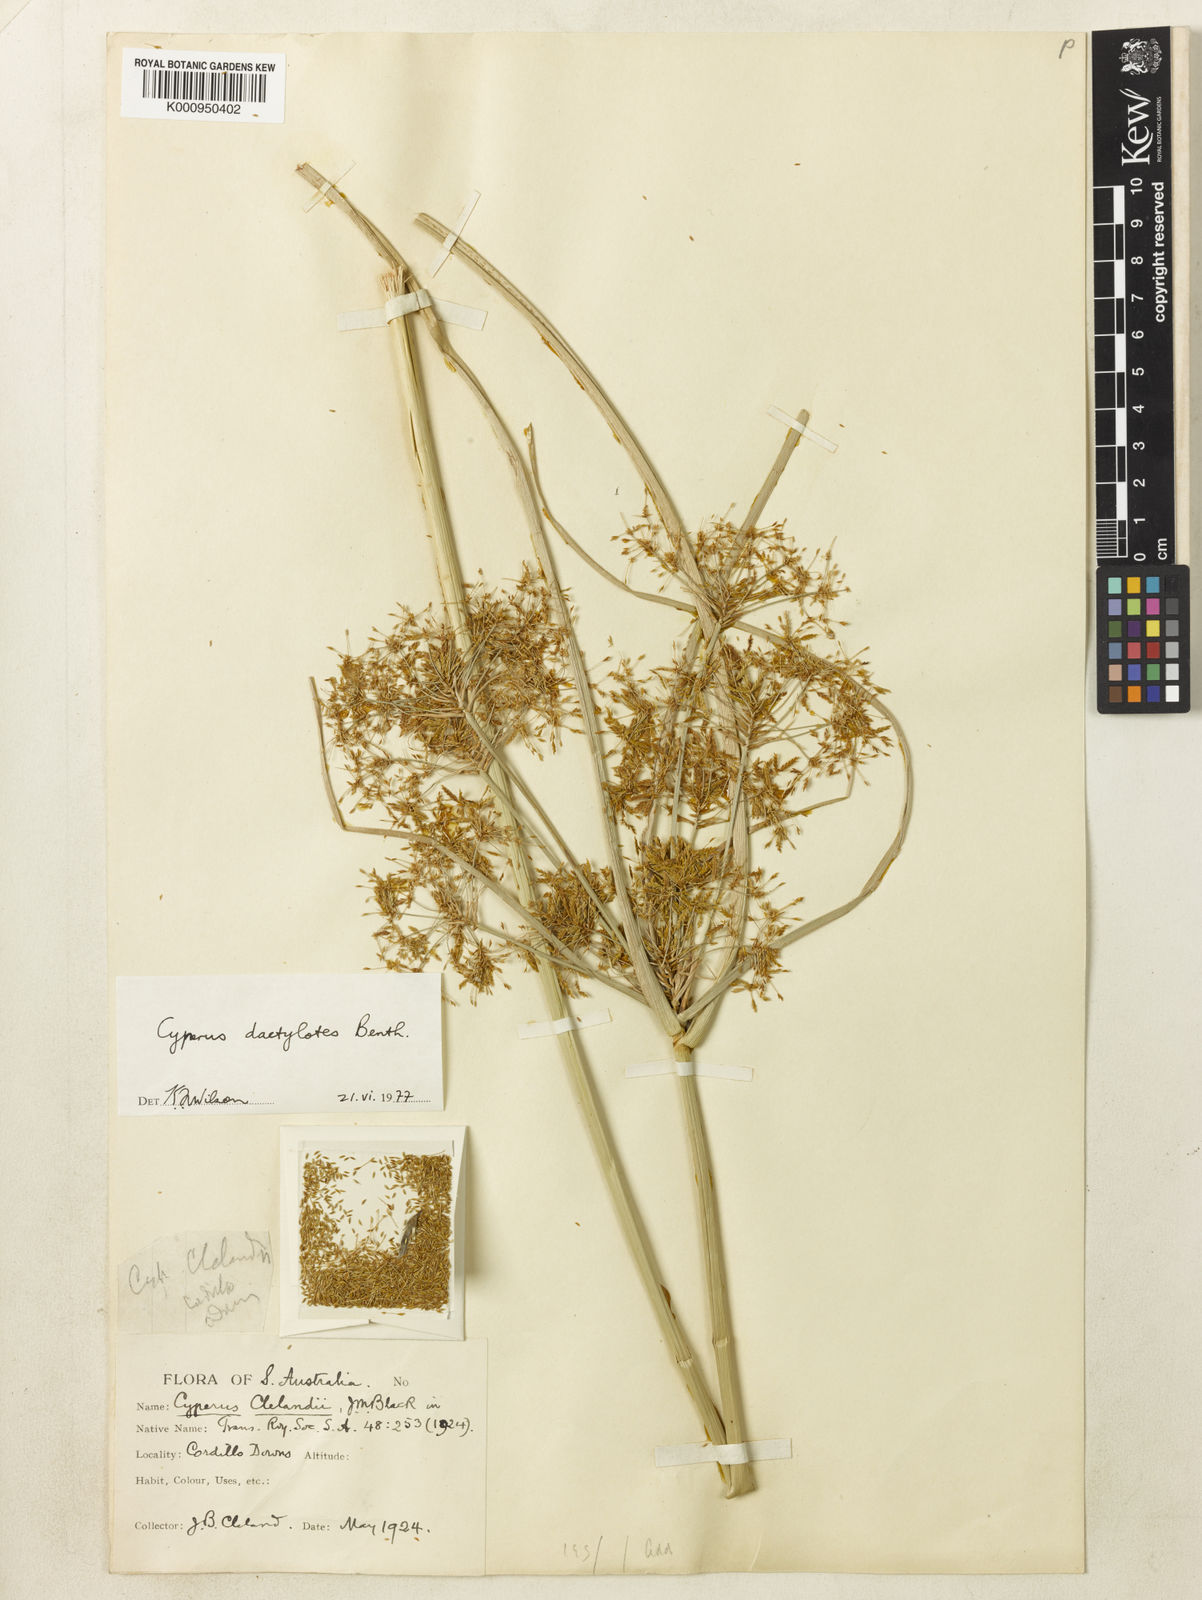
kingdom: Plantae
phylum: Tracheophyta
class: Liliopsida
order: Poales
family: Cyperaceae
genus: Cyperus
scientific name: Cyperus dactylotes
